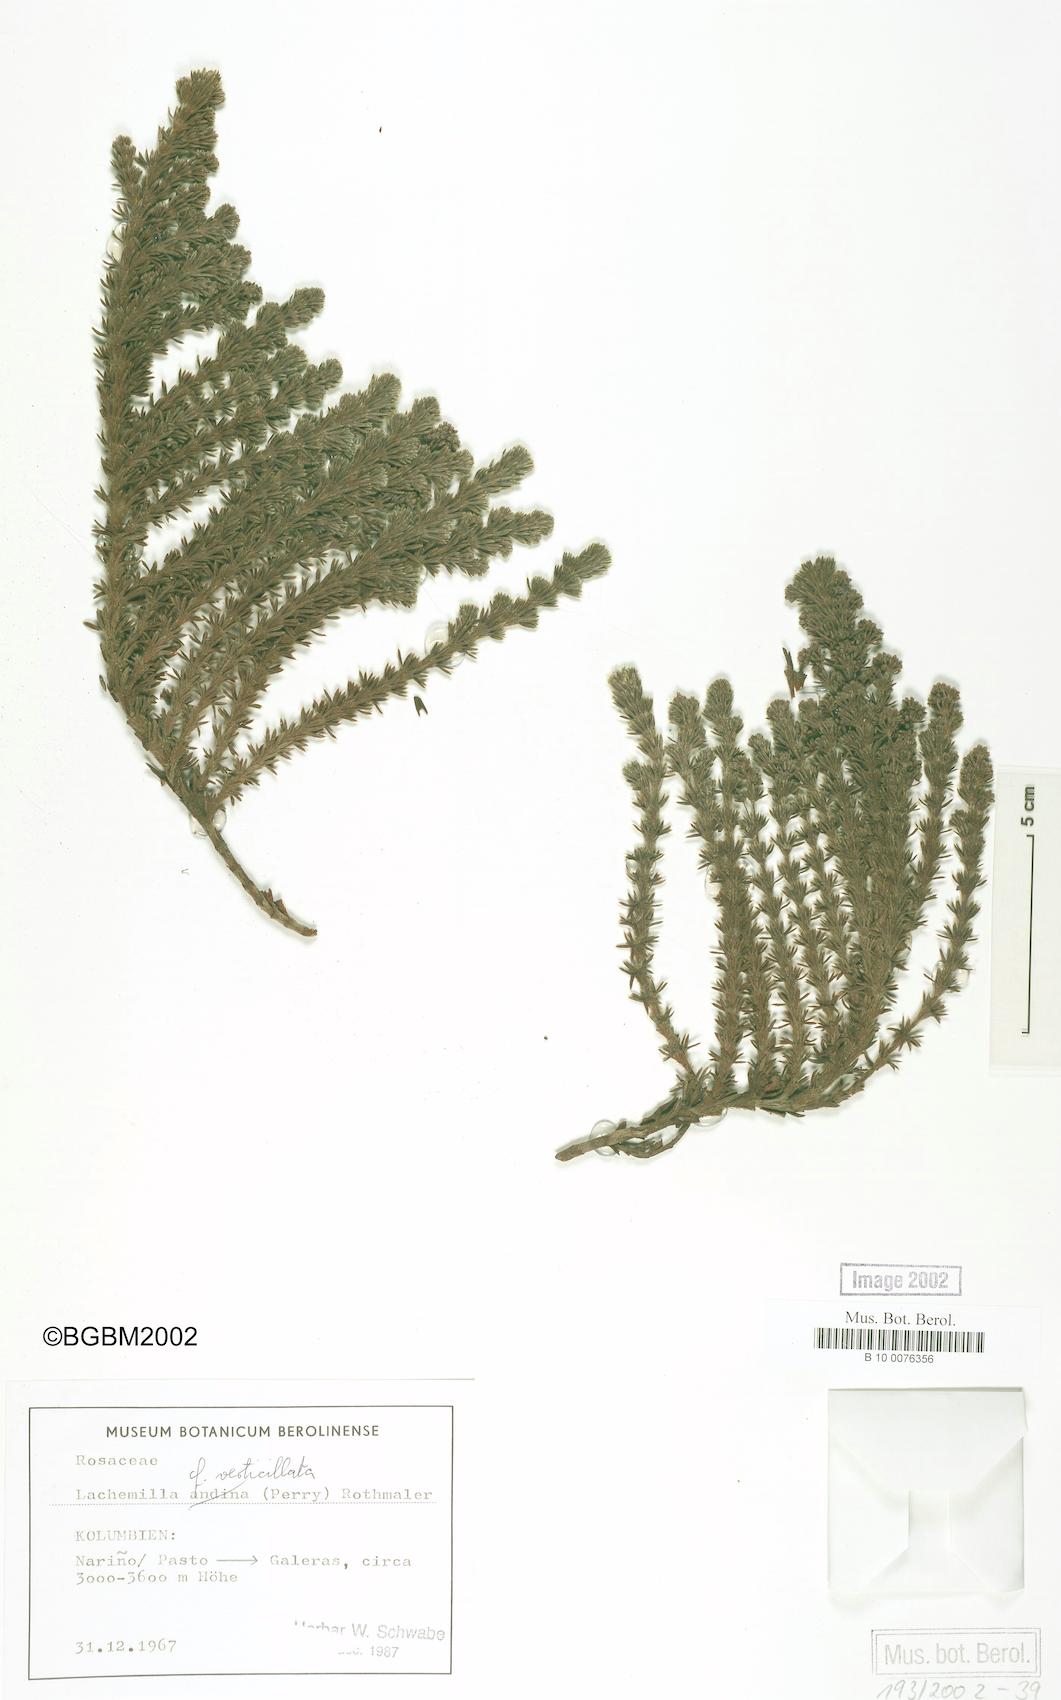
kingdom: Plantae
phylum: Tracheophyta
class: Magnoliopsida
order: Rosales
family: Rosaceae
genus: Lachemilla
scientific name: Lachemilla verticillata
